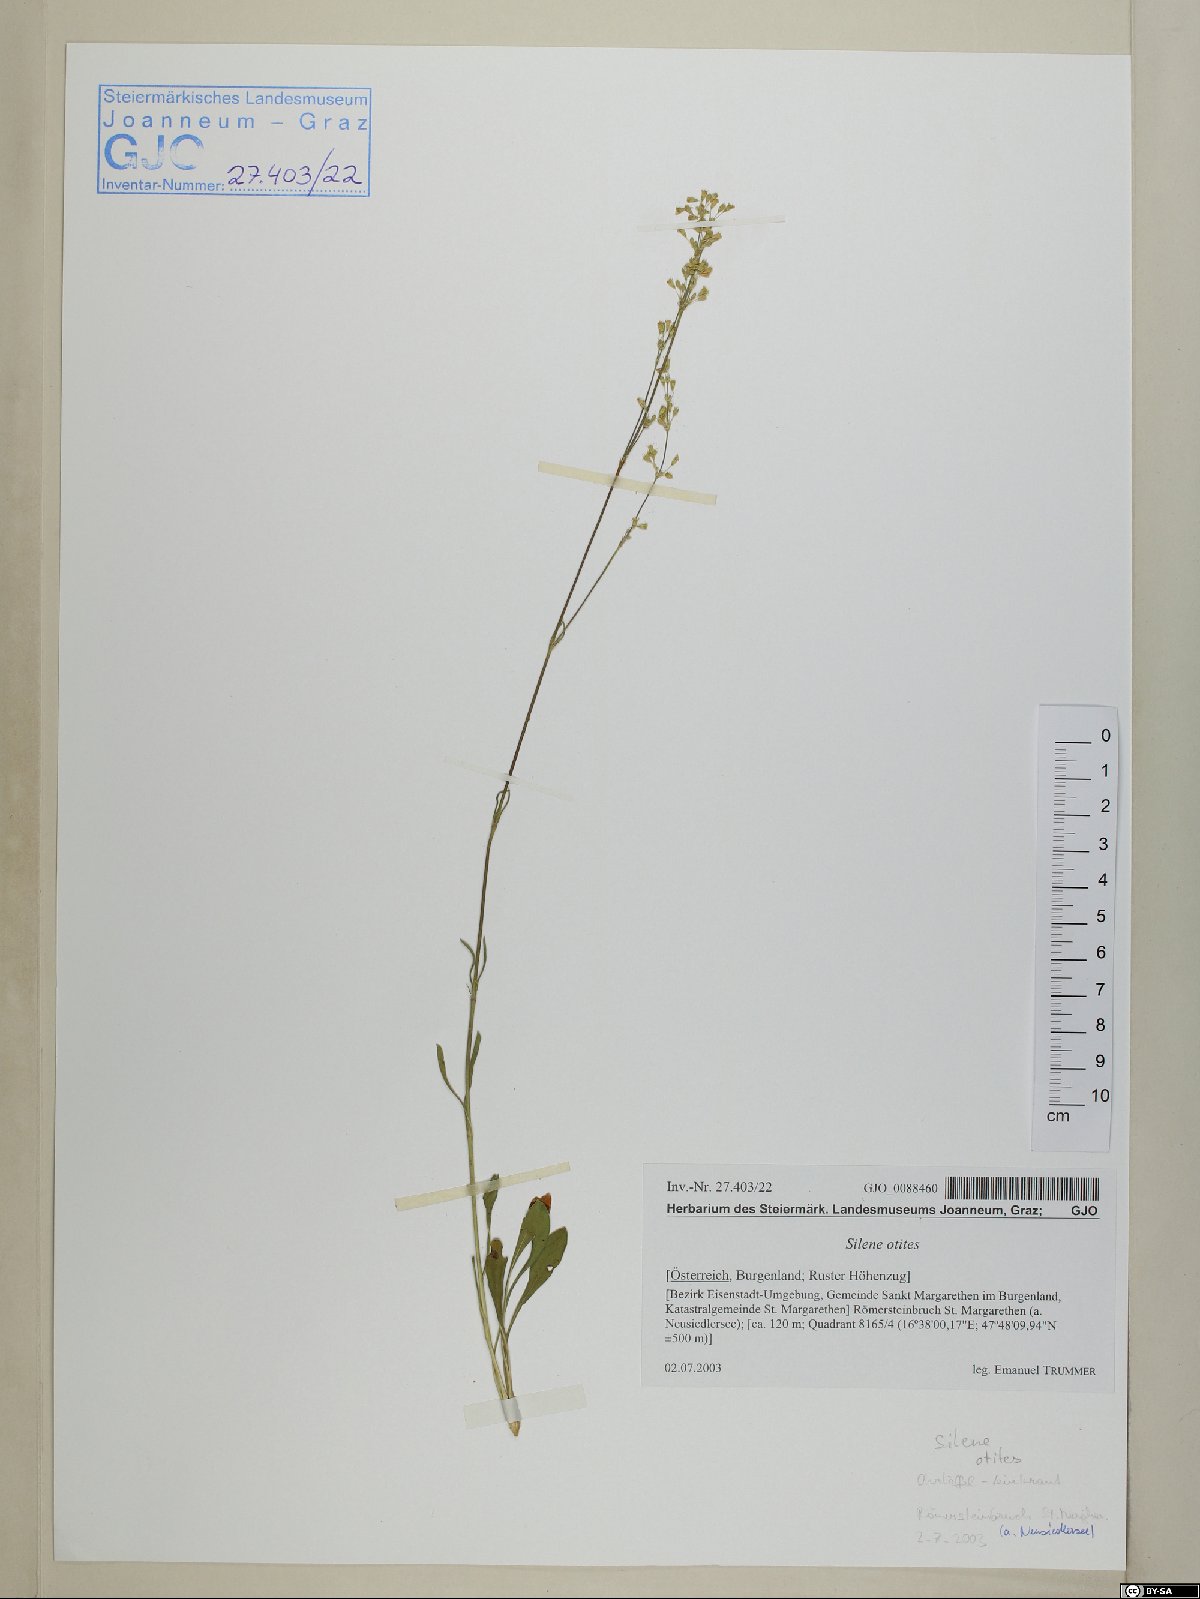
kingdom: Plantae
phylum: Tracheophyta
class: Magnoliopsida
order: Caryophyllales
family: Caryophyllaceae
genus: Silene
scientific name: Silene otites
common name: Spanish catchfly
